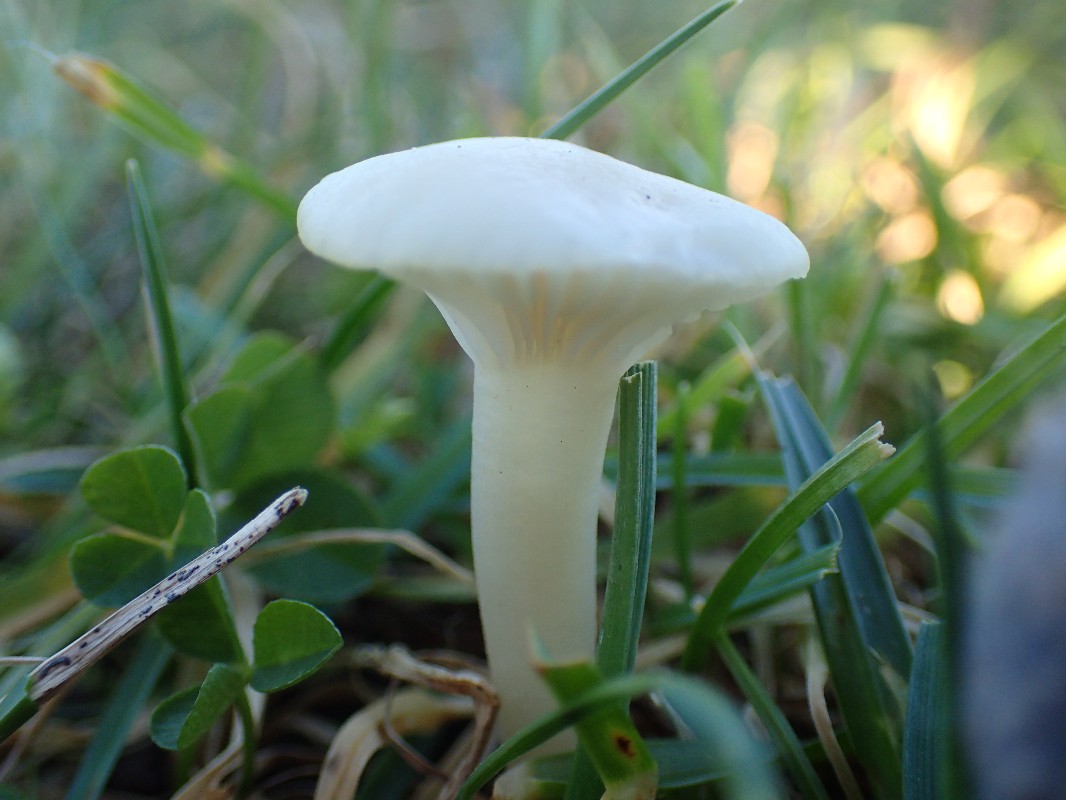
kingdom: Fungi
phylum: Basidiomycota
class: Agaricomycetes
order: Agaricales
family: Hygrophoraceae
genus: Cuphophyllus
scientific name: Cuphophyllus virgineus
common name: snehvid vokshat
